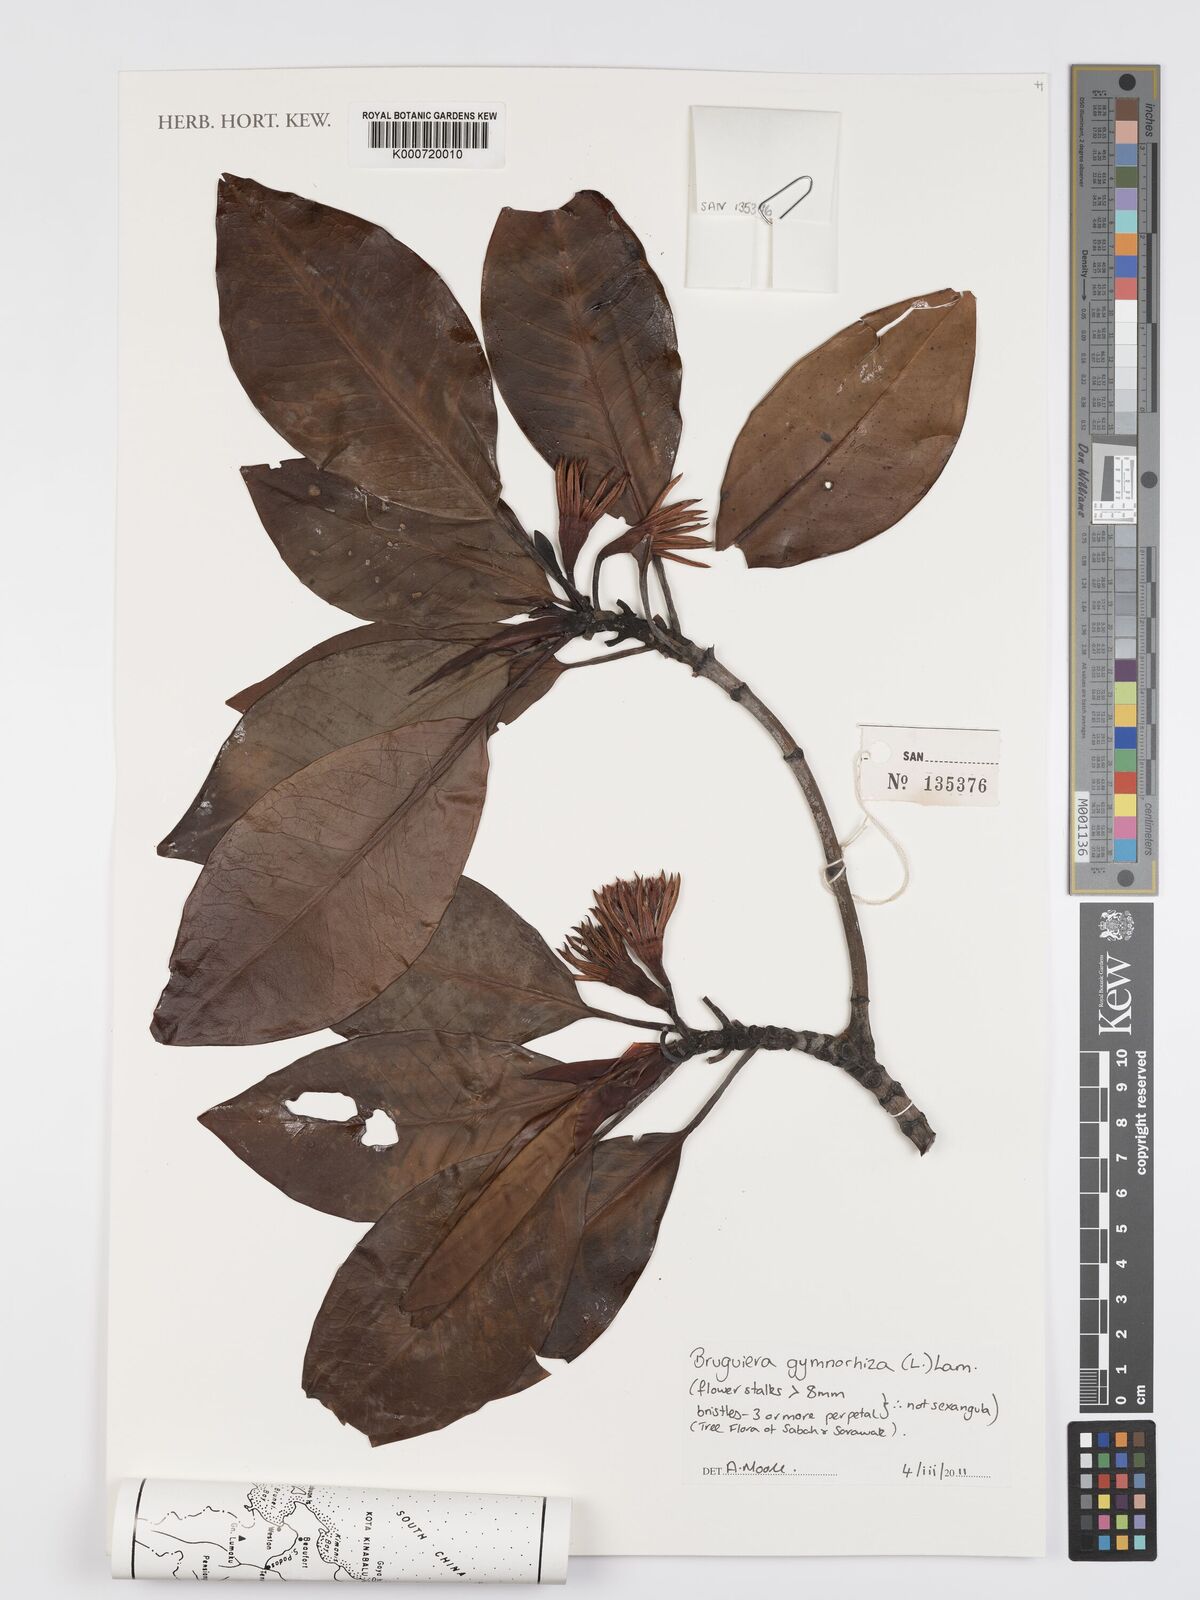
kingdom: Plantae
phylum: Tracheophyta
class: Magnoliopsida
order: Malpighiales
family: Rhizophoraceae
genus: Bruguiera
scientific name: Bruguiera gymnorhiza
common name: Oriental mangrove
